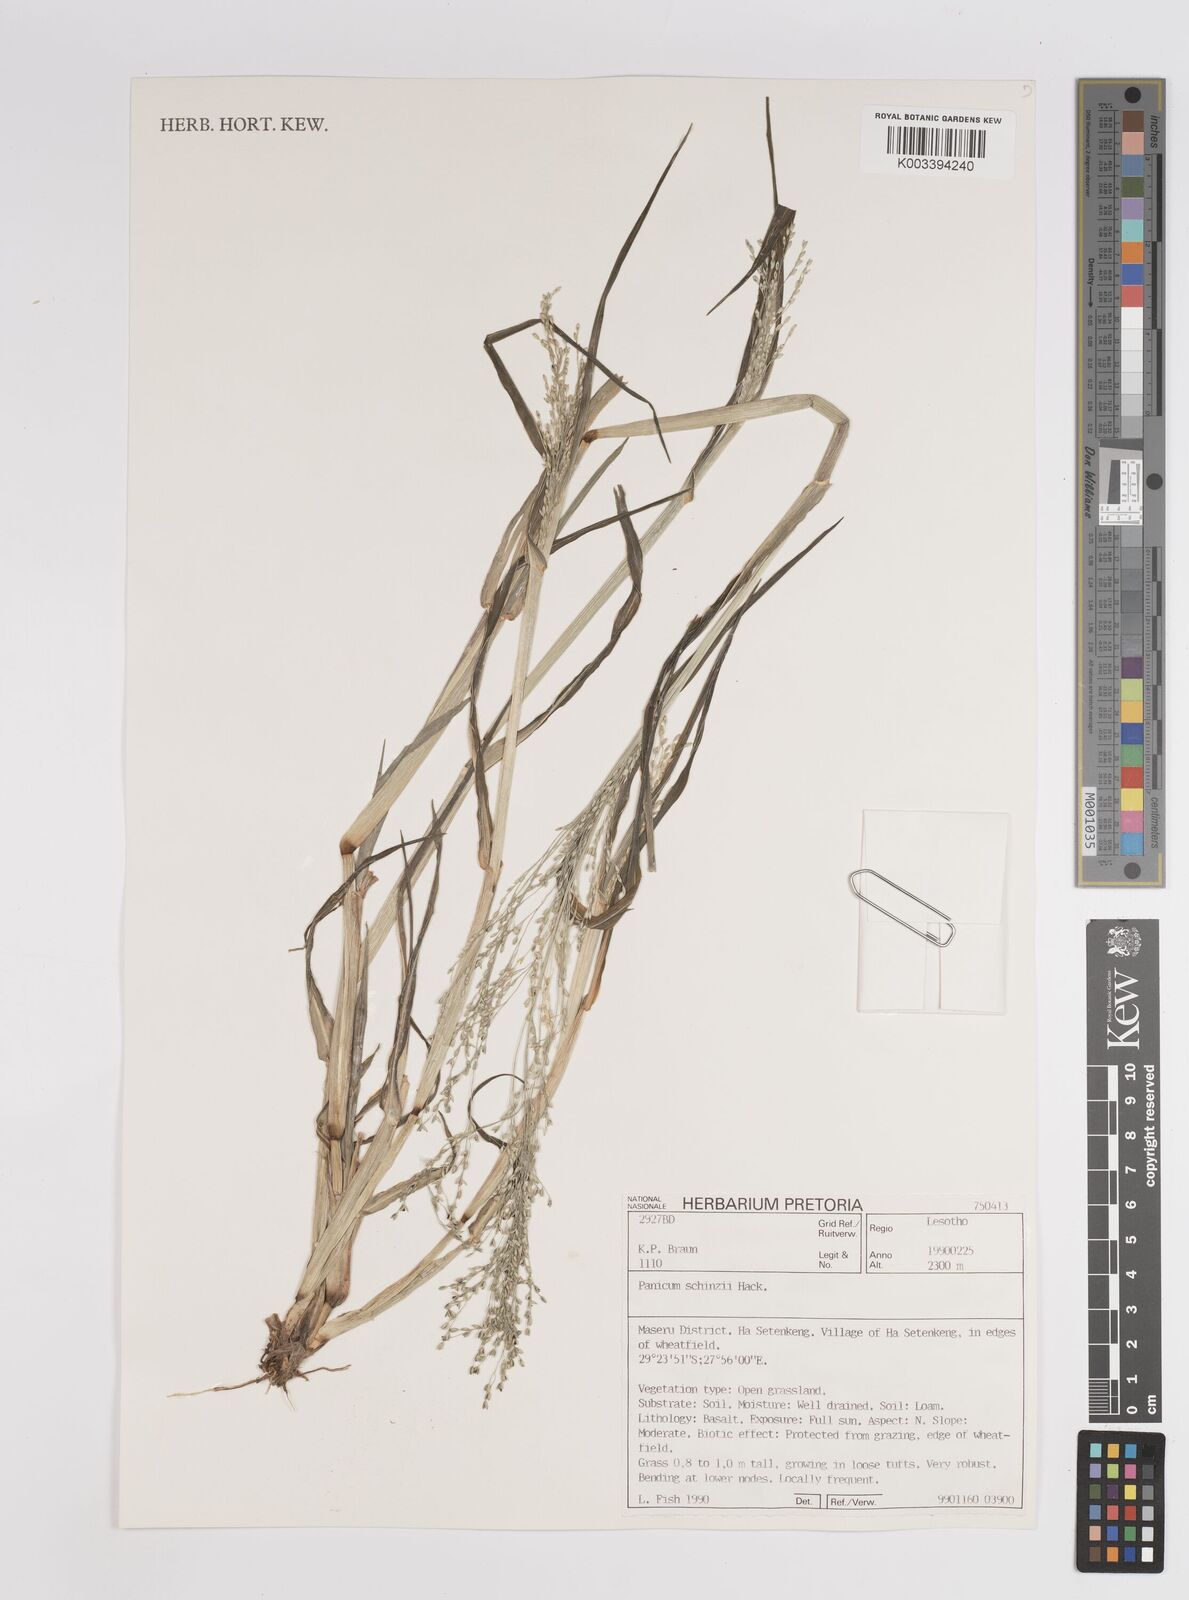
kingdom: Plantae
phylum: Tracheophyta
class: Liliopsida
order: Poales
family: Poaceae
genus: Panicum
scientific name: Panicum schinzii
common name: Sweet grass
